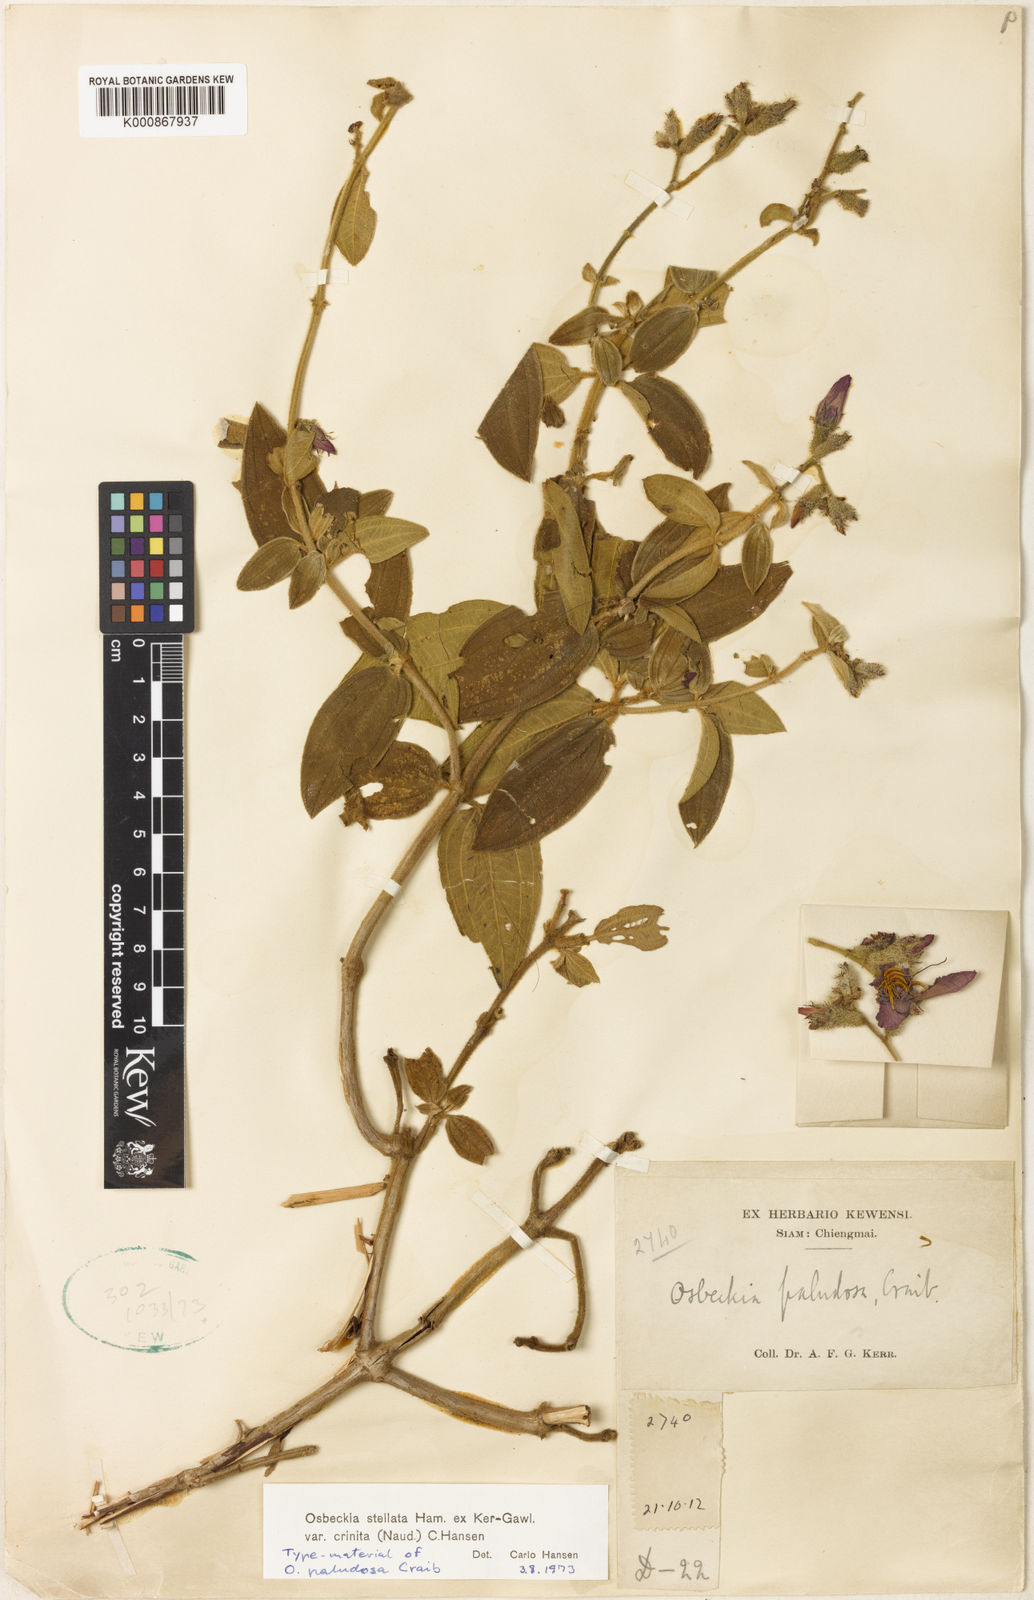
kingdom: Plantae
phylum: Tracheophyta
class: Magnoliopsida
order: Myrtales
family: Melastomataceae
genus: Osbeckia
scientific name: Osbeckia crinita
